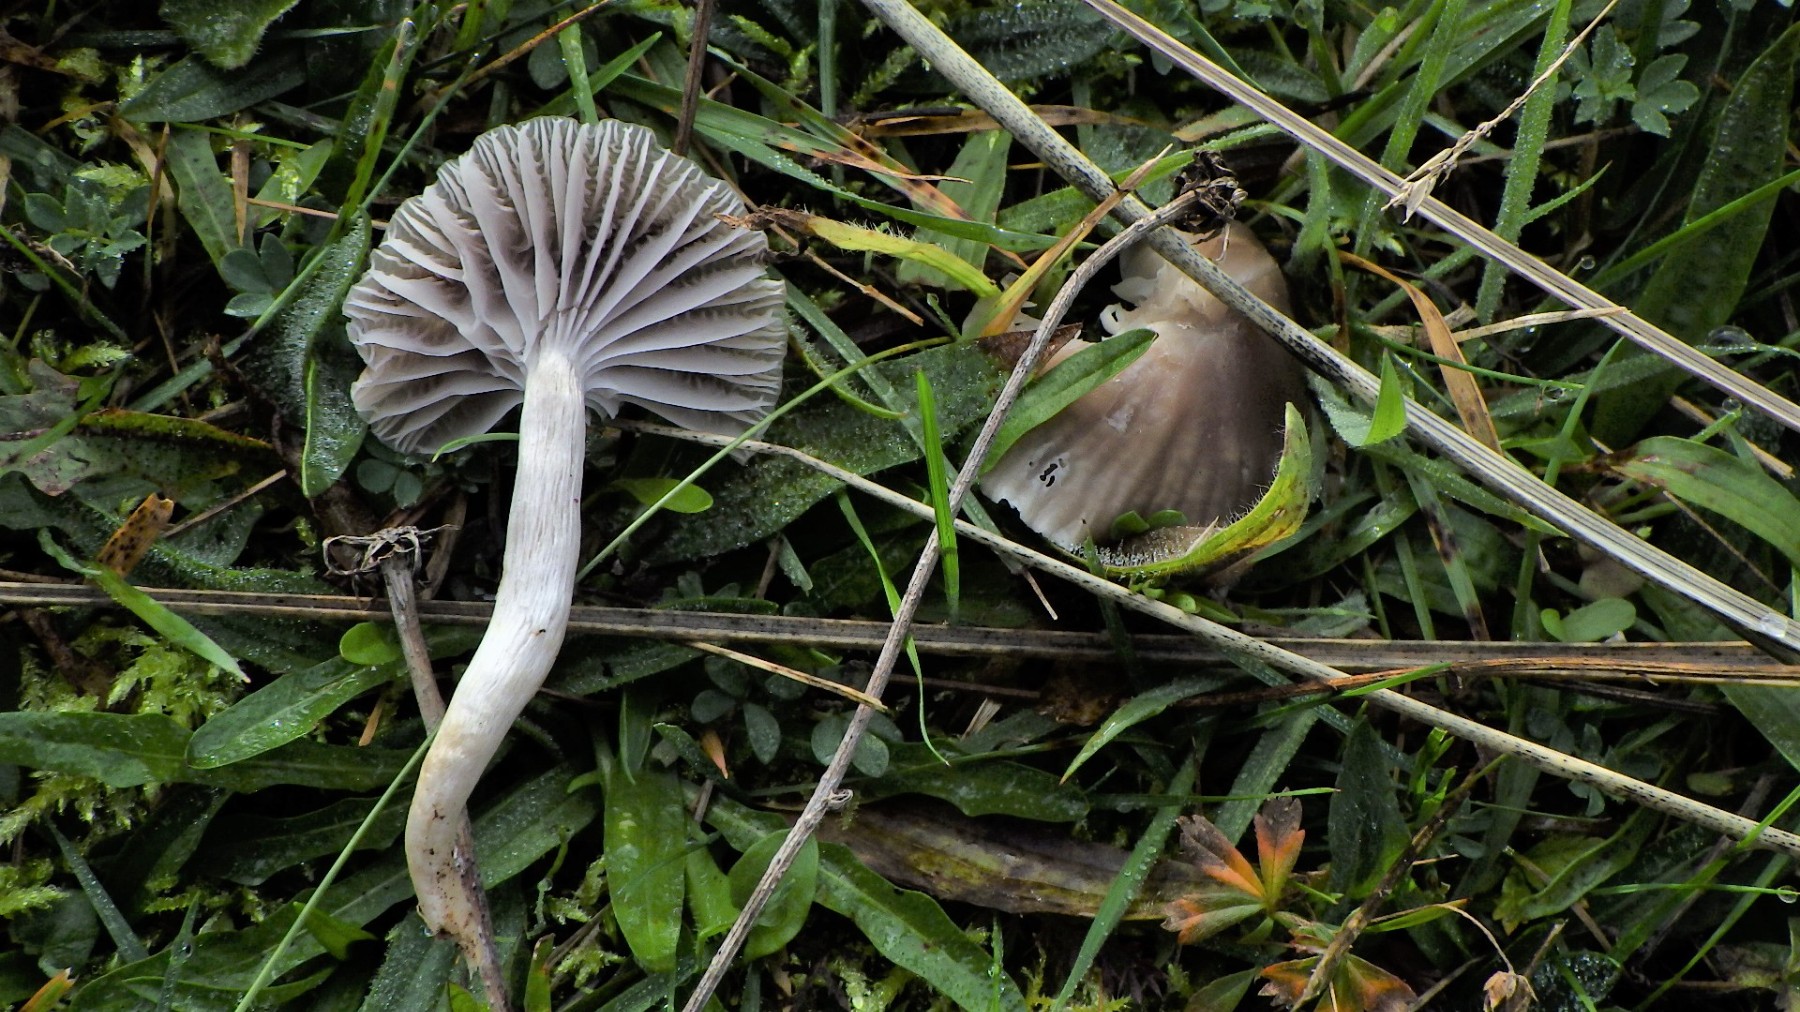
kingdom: Fungi
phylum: Basidiomycota
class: Agaricomycetes
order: Agaricales
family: Hygrophoraceae
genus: Cuphophyllus
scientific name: Cuphophyllus flavipes
